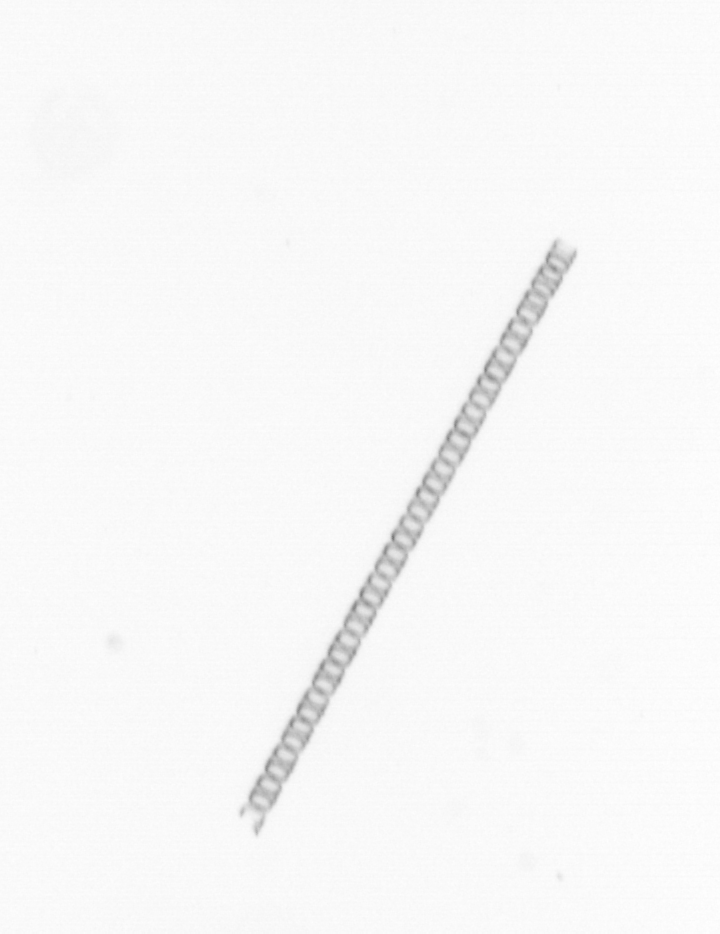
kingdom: Chromista
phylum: Ochrophyta
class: Bacillariophyceae
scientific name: Bacillariophyceae
